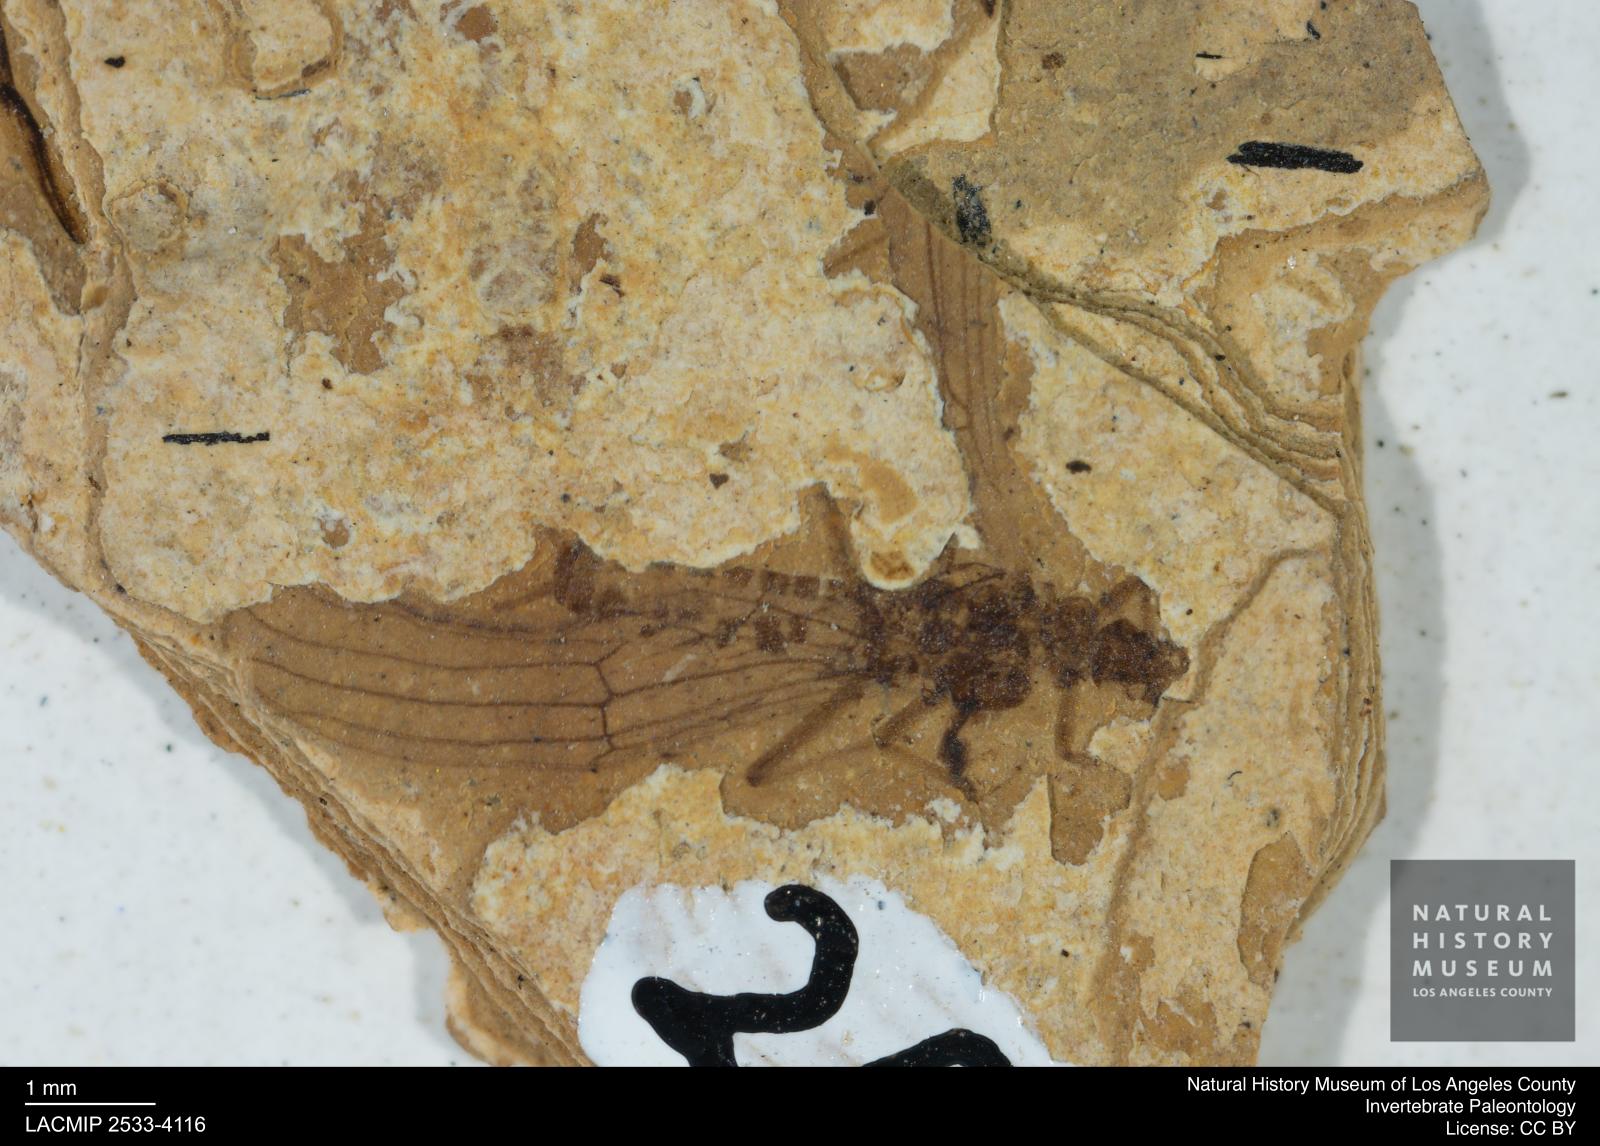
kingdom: Animalia
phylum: Arthropoda
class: Insecta
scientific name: Insecta
